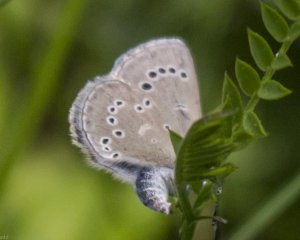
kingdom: Animalia
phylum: Arthropoda
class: Insecta
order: Lepidoptera
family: Lycaenidae
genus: Glaucopsyche
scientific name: Glaucopsyche lygdamus
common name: Silvery Blue
